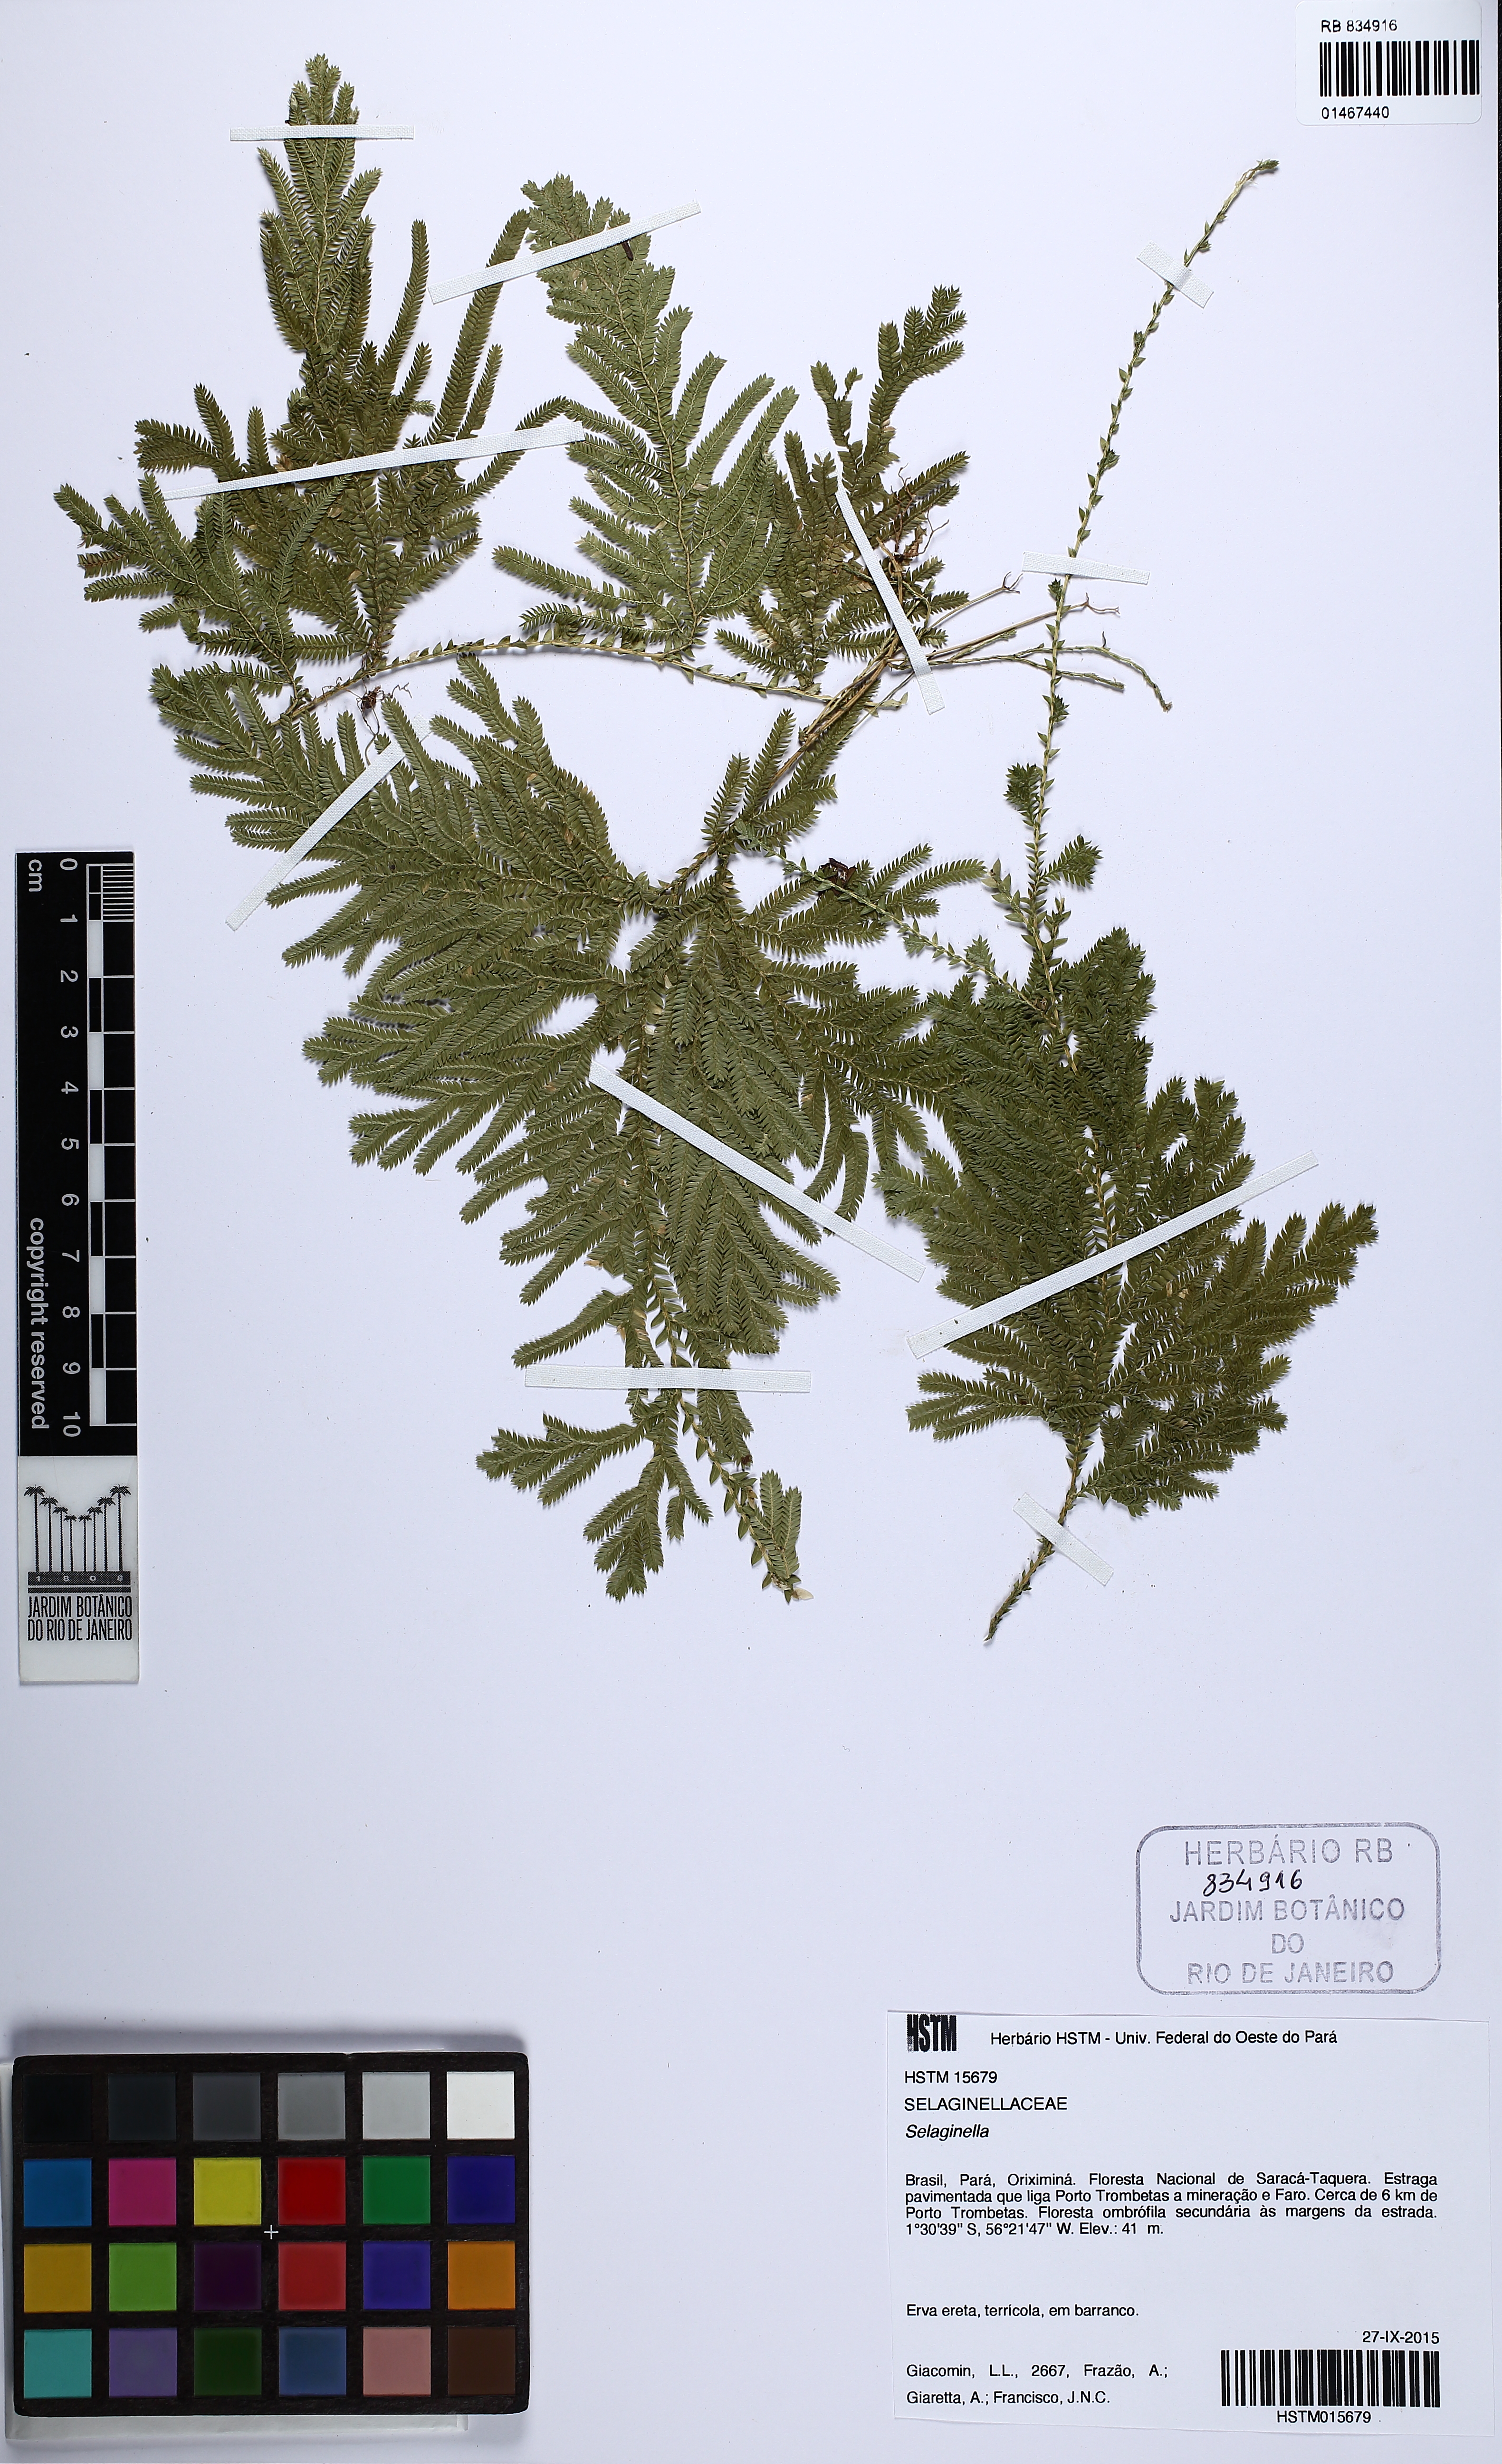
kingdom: Plantae
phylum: Tracheophyta
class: Lycopodiopsida
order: Selaginellales
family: Selaginellaceae
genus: Selaginella
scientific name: Selaginella
